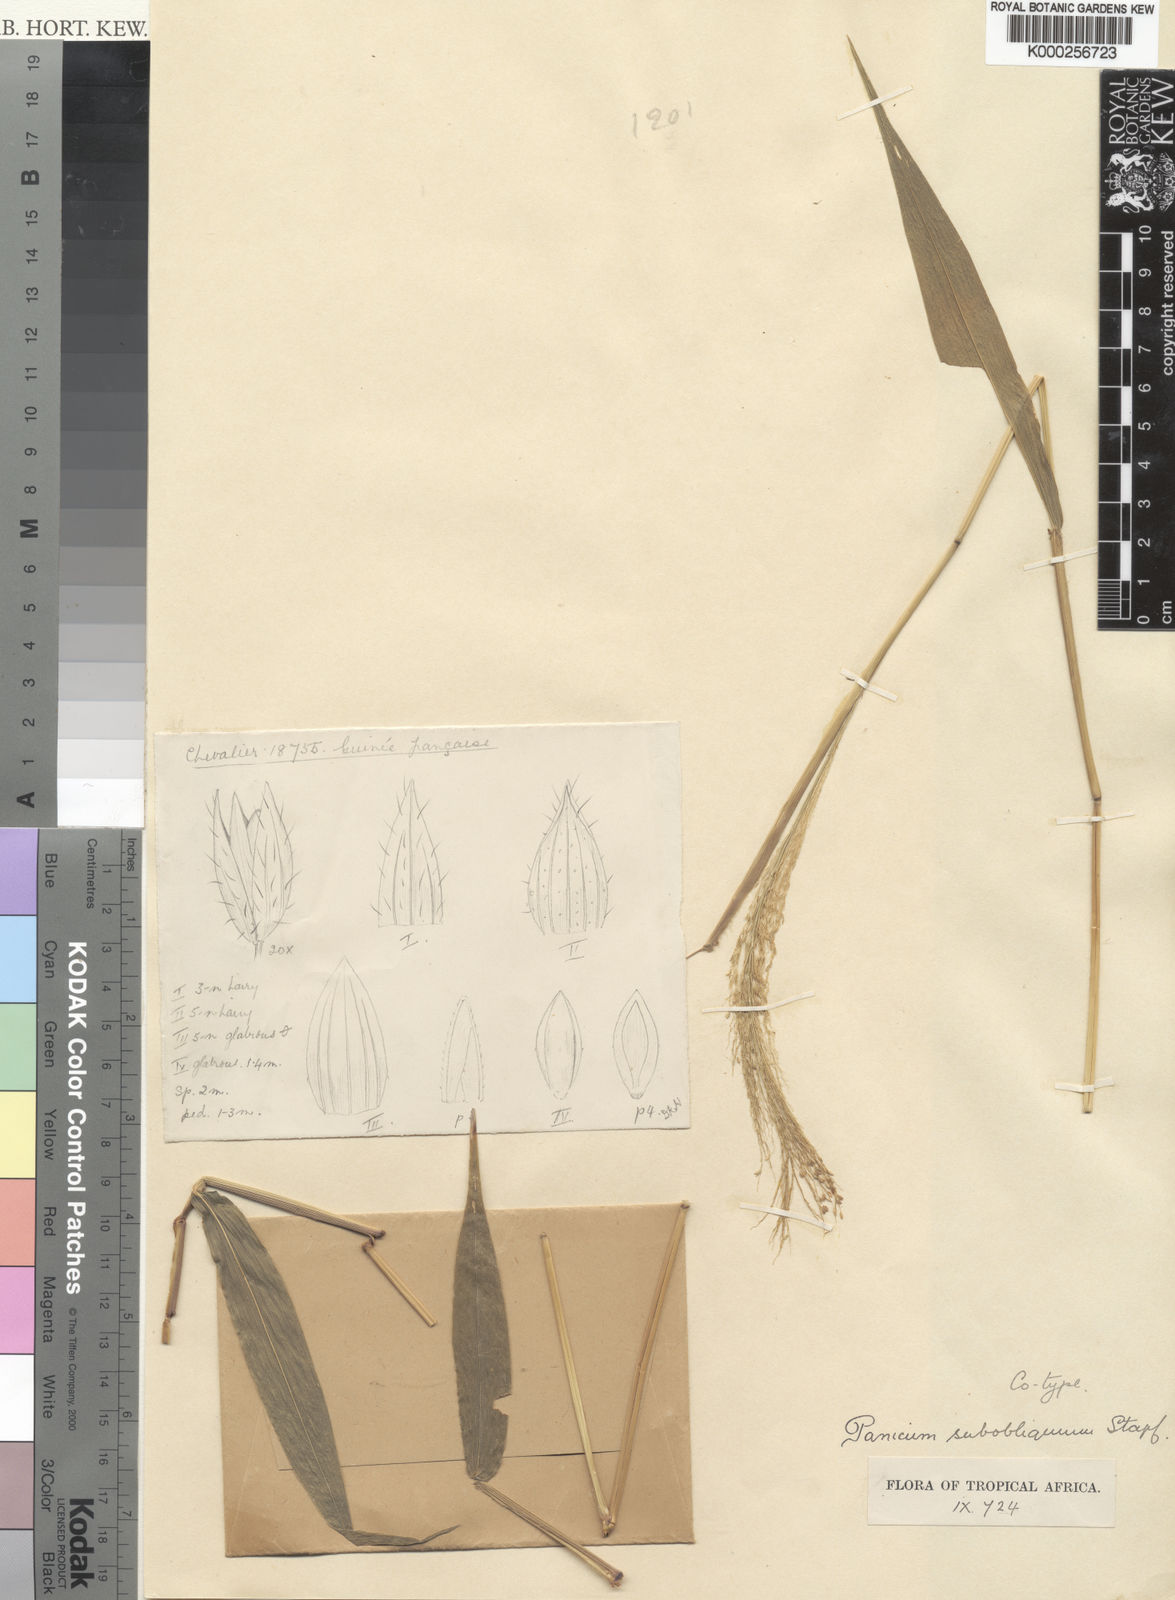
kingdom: Plantae
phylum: Tracheophyta
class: Liliopsida
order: Poales
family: Poaceae
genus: Panicum
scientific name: Panicum brevifolium
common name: Shortleaf panic grass
